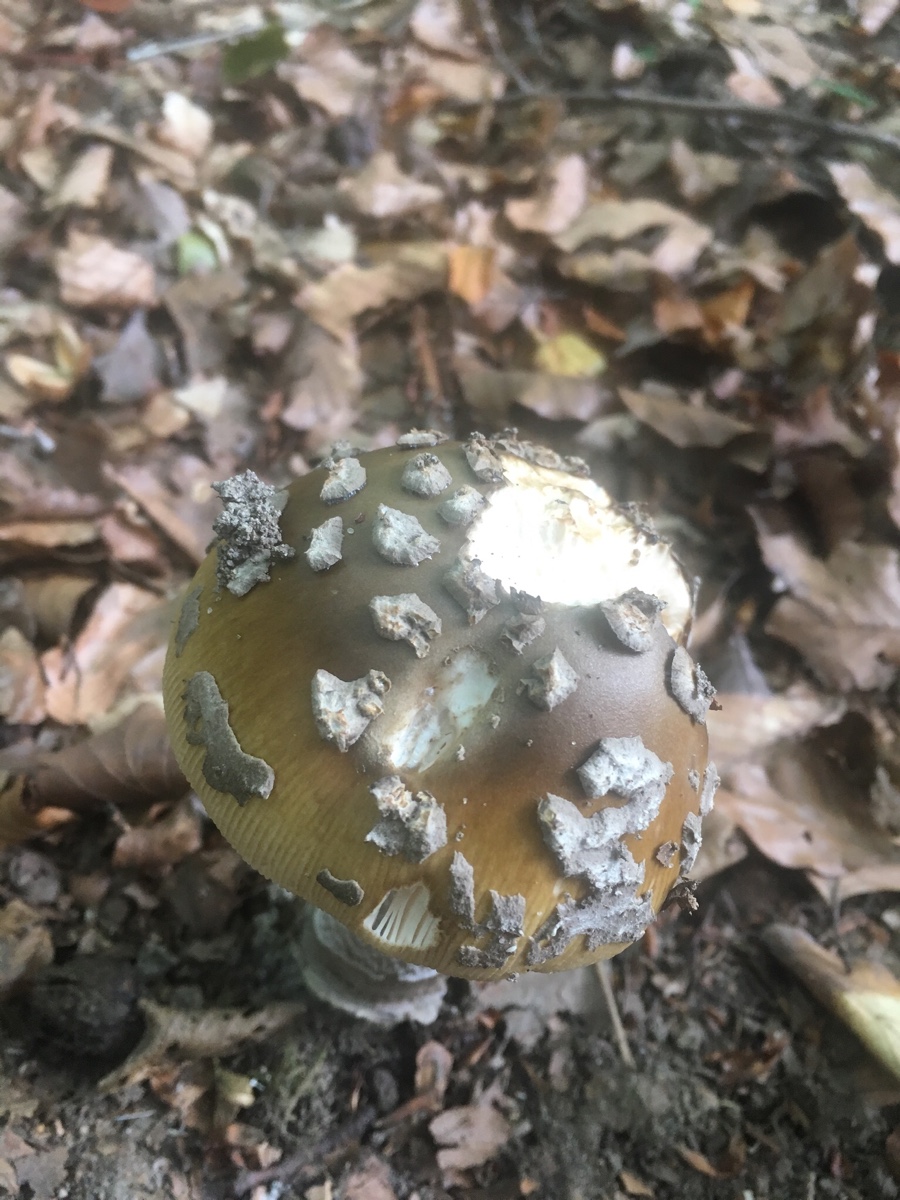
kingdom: Fungi
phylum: Basidiomycota
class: Agaricomycetes
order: Agaricales
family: Amanitaceae
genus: Amanita
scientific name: Amanita ceciliae
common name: stor kam-fluesvamp
